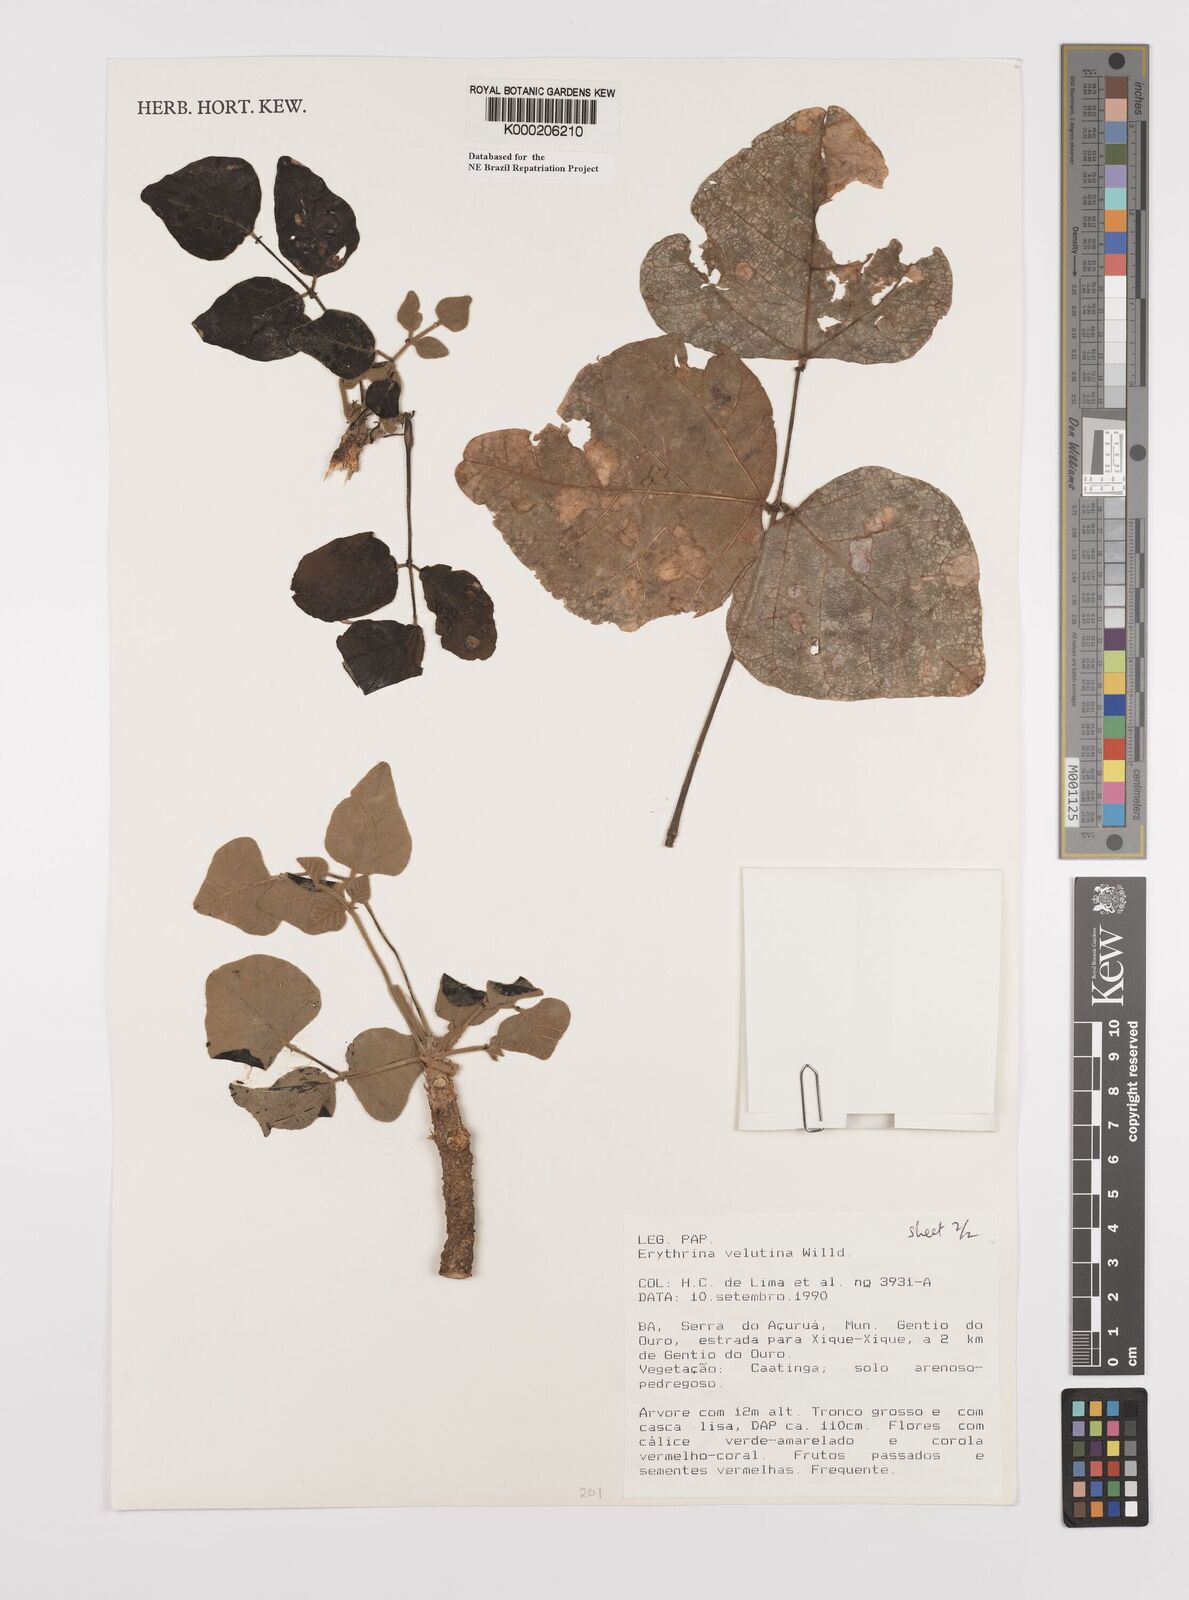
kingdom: Plantae
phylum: Tracheophyta
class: Magnoliopsida
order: Fabales
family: Fabaceae
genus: Erythrina
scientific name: Erythrina velutina
